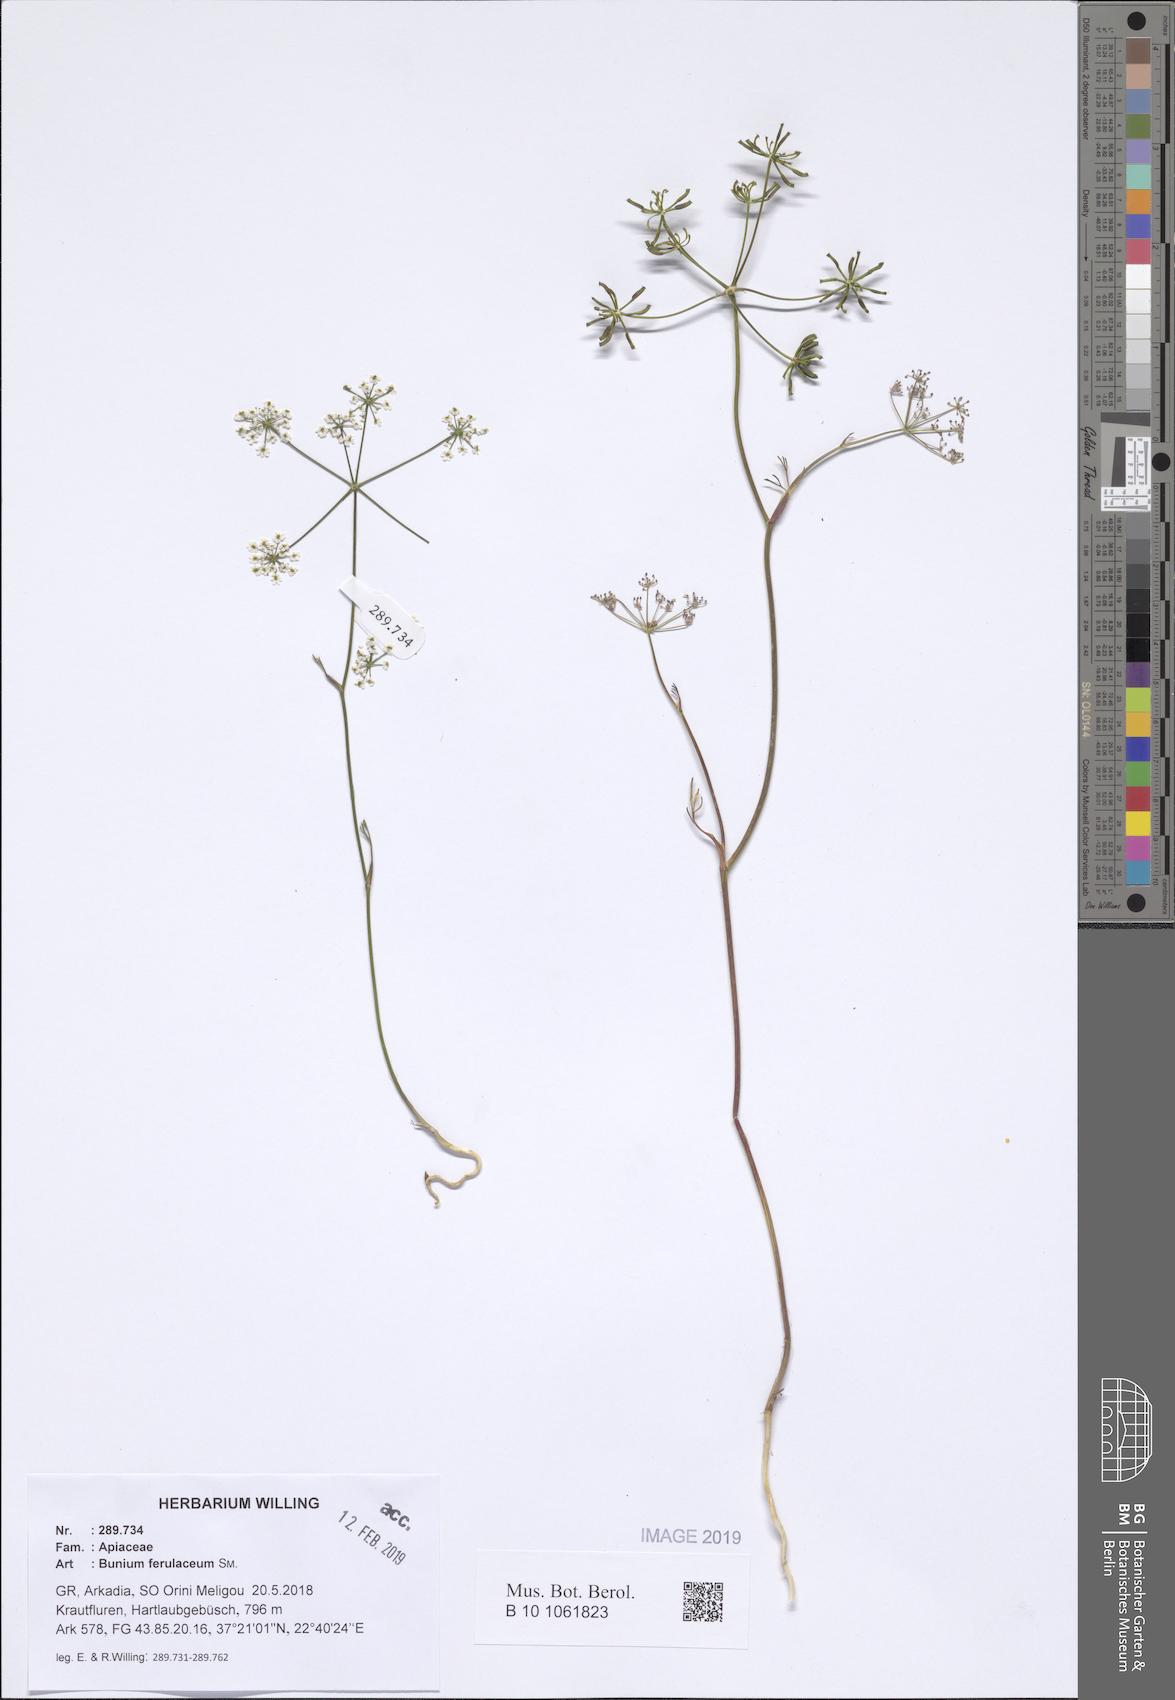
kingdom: Plantae
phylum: Tracheophyta
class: Magnoliopsida
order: Apiales
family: Apiaceae
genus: Bunium
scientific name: Bunium ferulaceum
